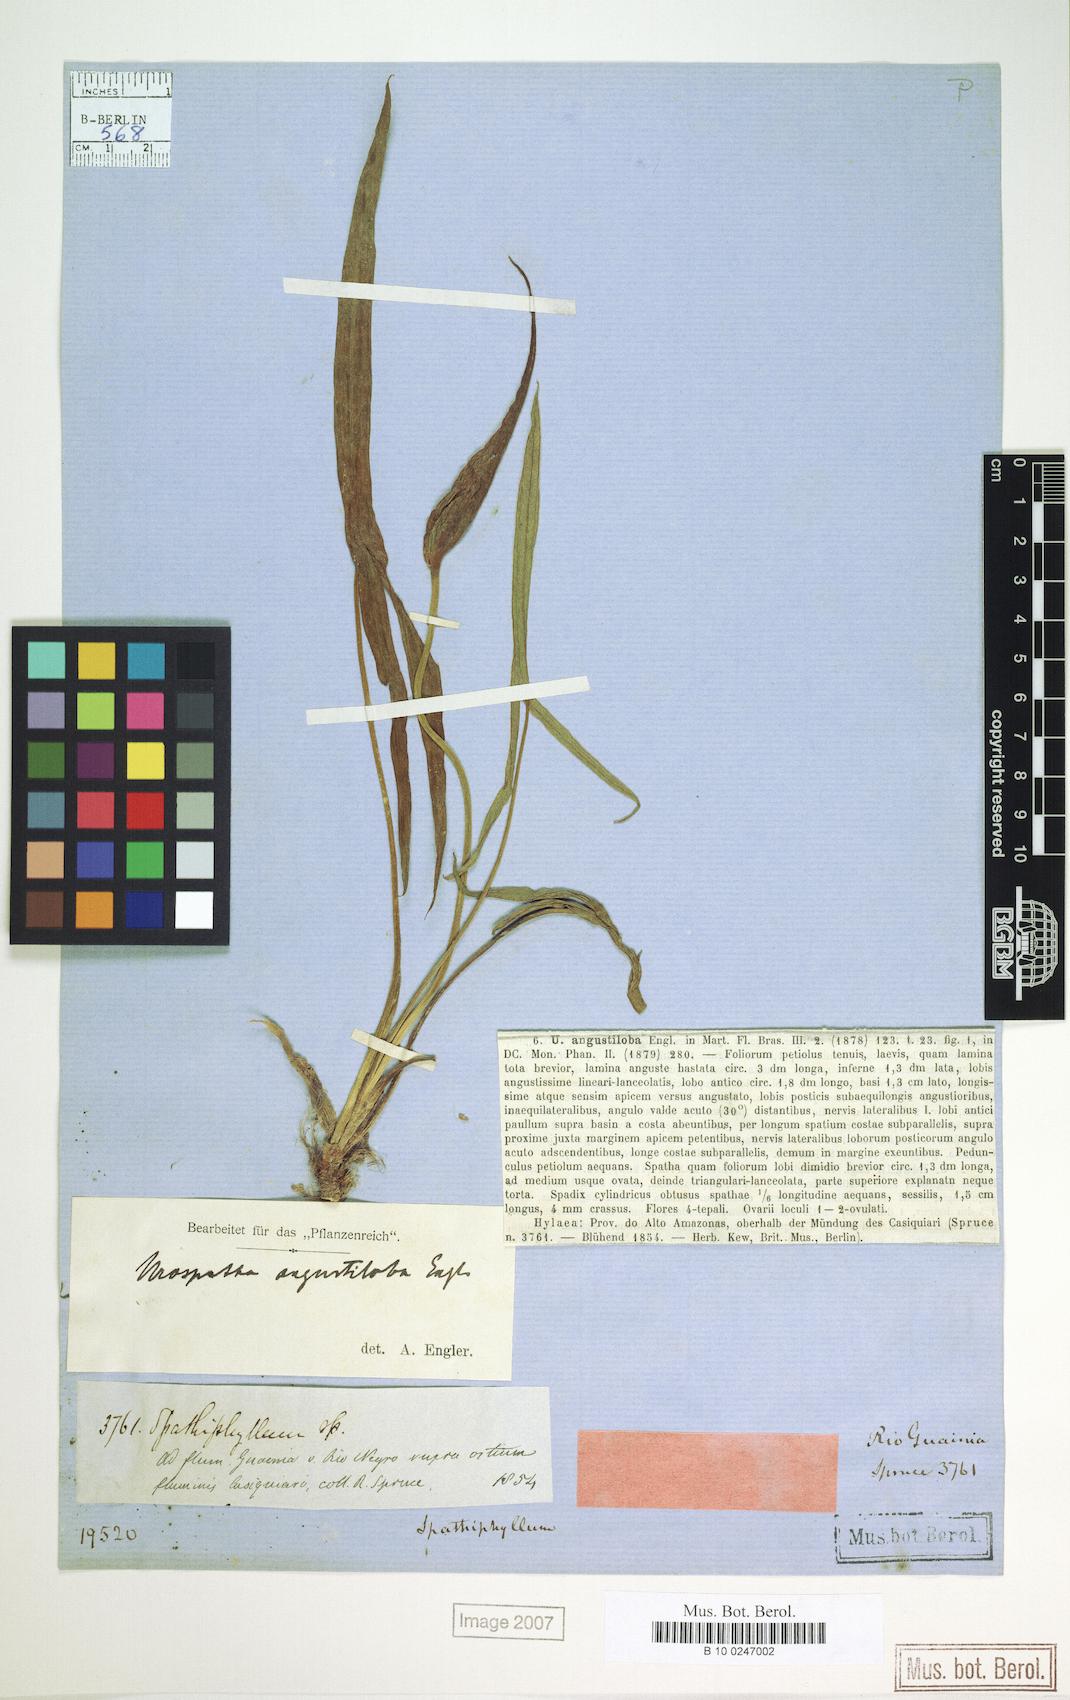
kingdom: Plantae
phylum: Tracheophyta
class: Liliopsida
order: Alismatales
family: Araceae
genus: Urospatha
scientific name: Urospatha angustiloba
